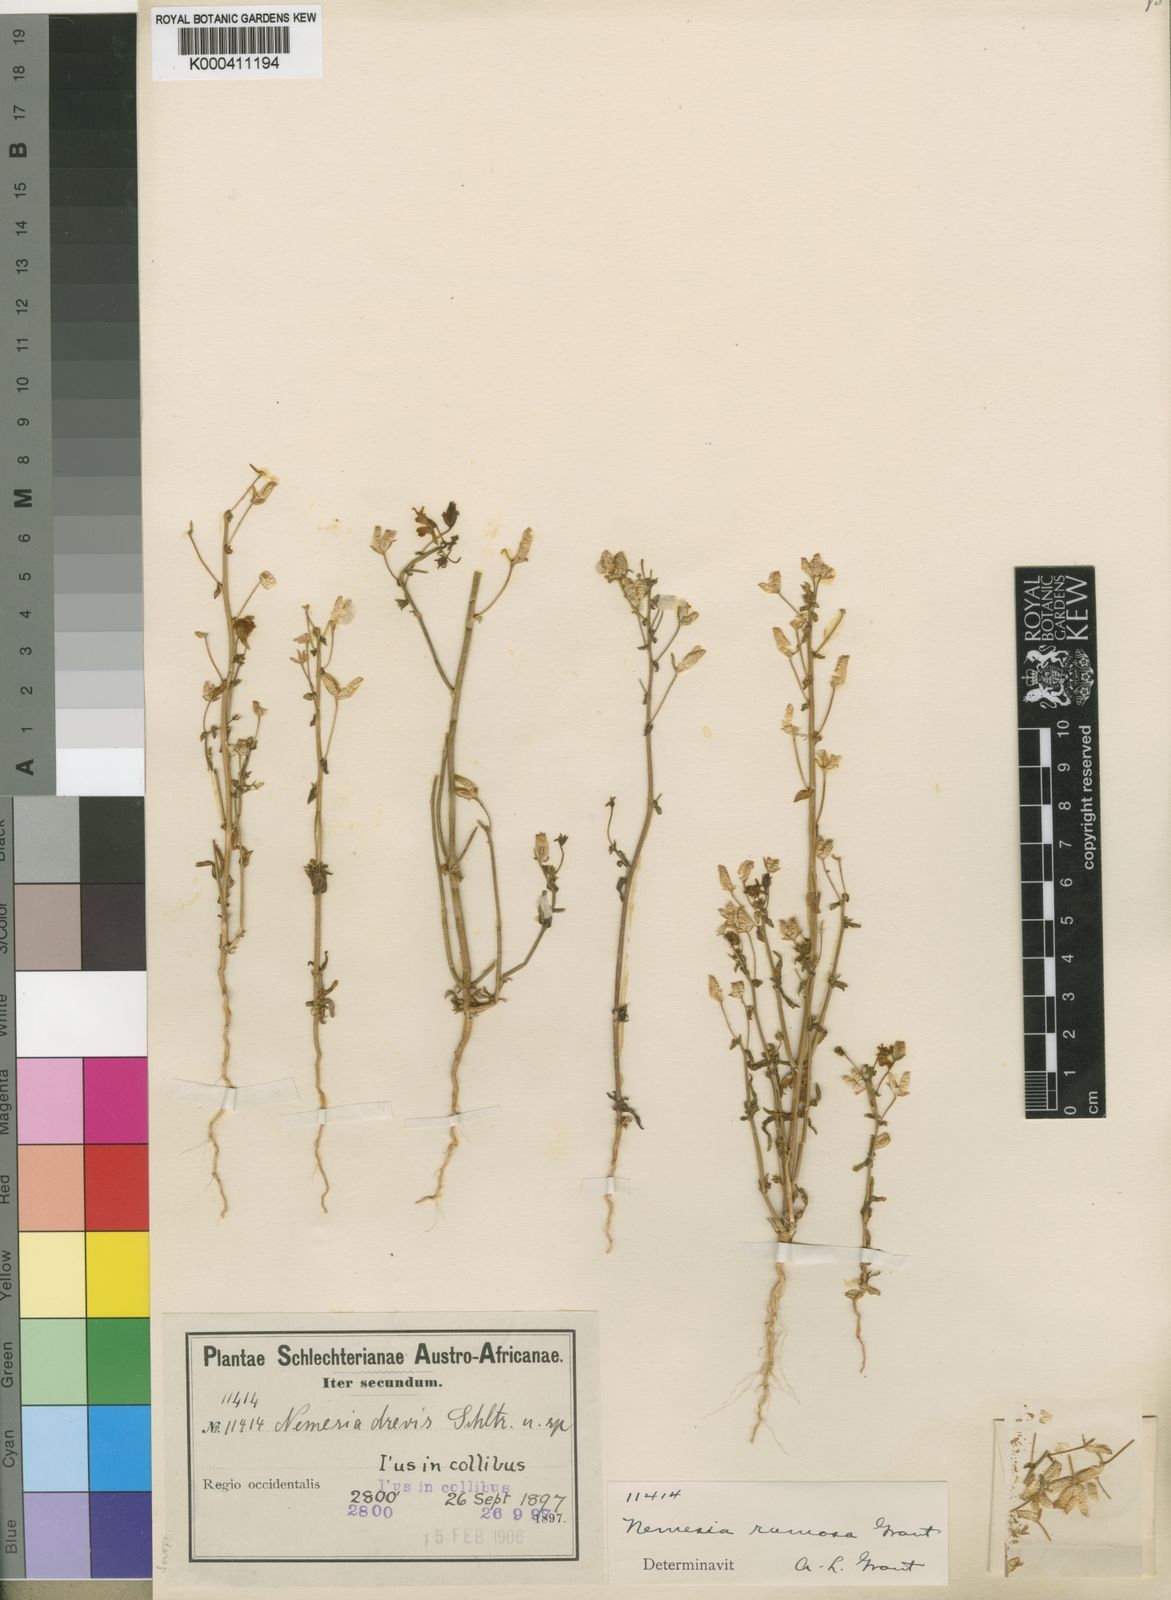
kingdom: Plantae
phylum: Tracheophyta
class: Magnoliopsida
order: Lamiales
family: Scrophulariaceae
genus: Nemesia
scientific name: Nemesia
